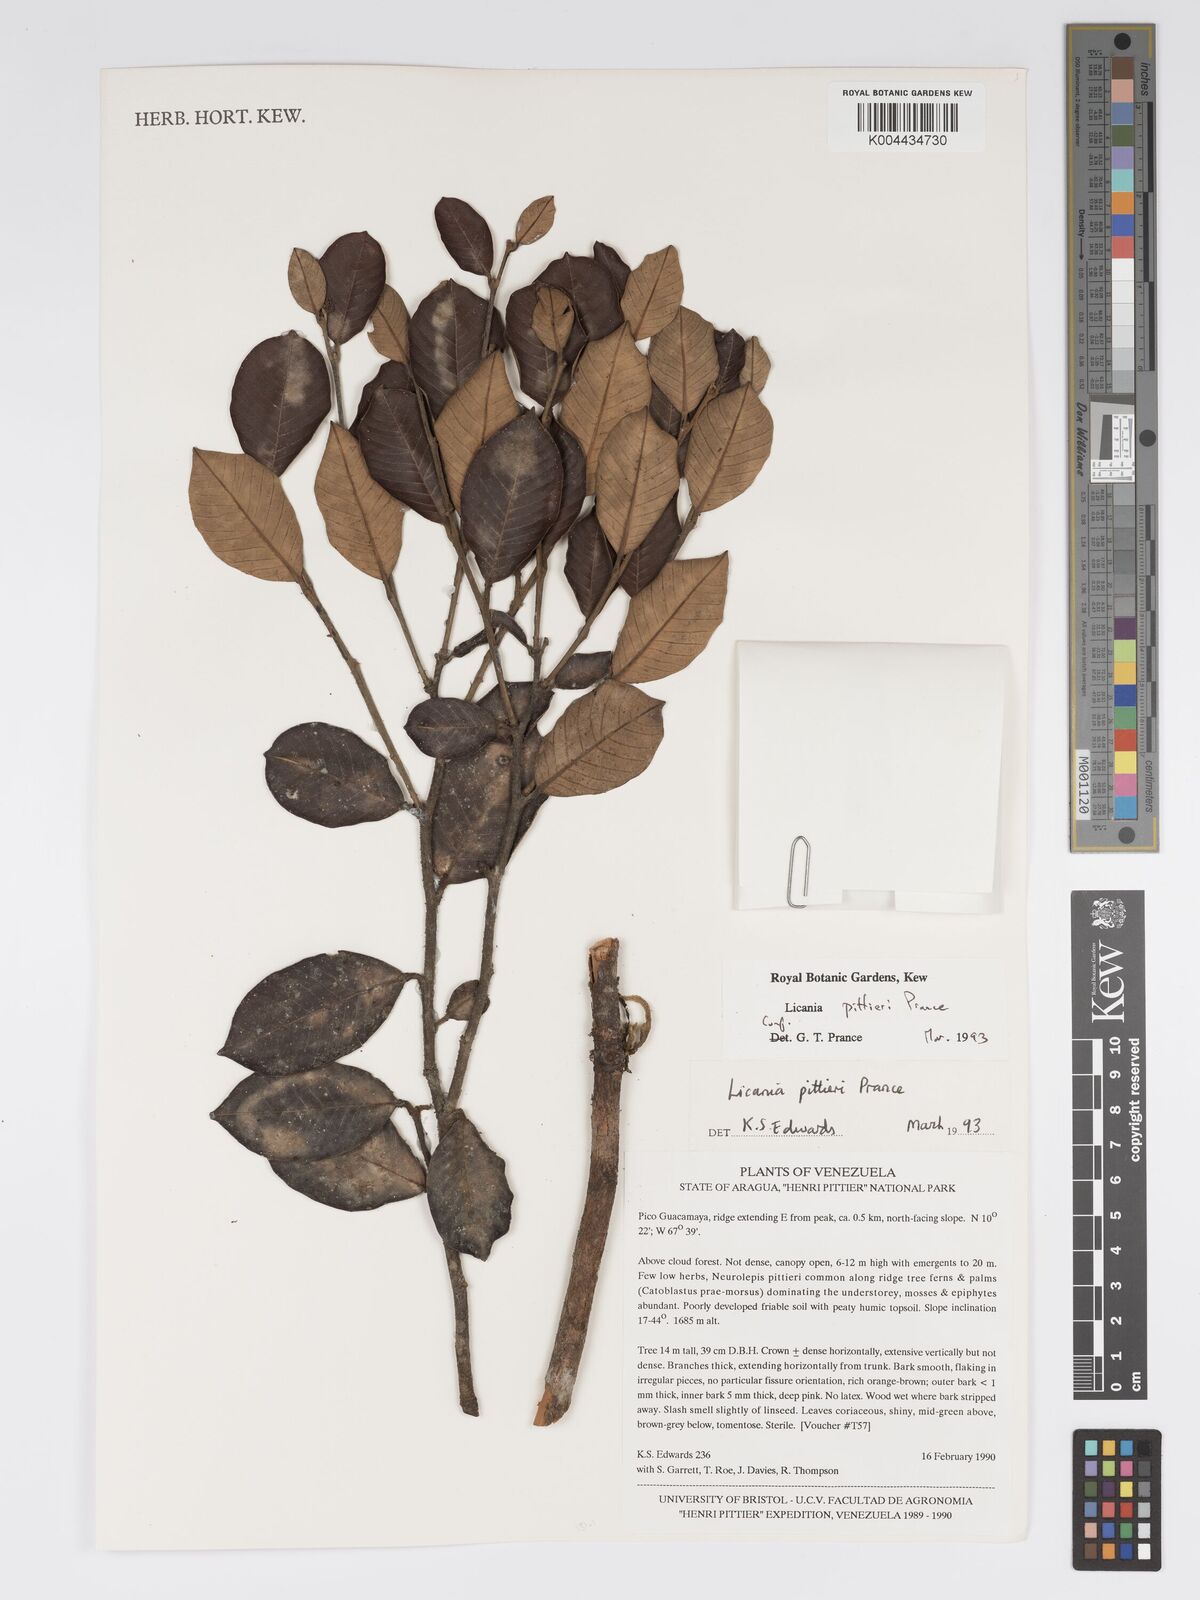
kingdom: Plantae
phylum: Tracheophyta
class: Magnoliopsida
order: Malpighiales
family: Chrysobalanaceae
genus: Licania
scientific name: Licania pittieri
